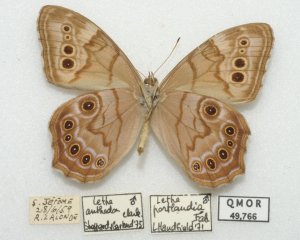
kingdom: Animalia
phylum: Arthropoda
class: Insecta
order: Lepidoptera
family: Nymphalidae
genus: Lethe
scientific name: Lethe anthedon
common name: Northern Pearly-Eye
